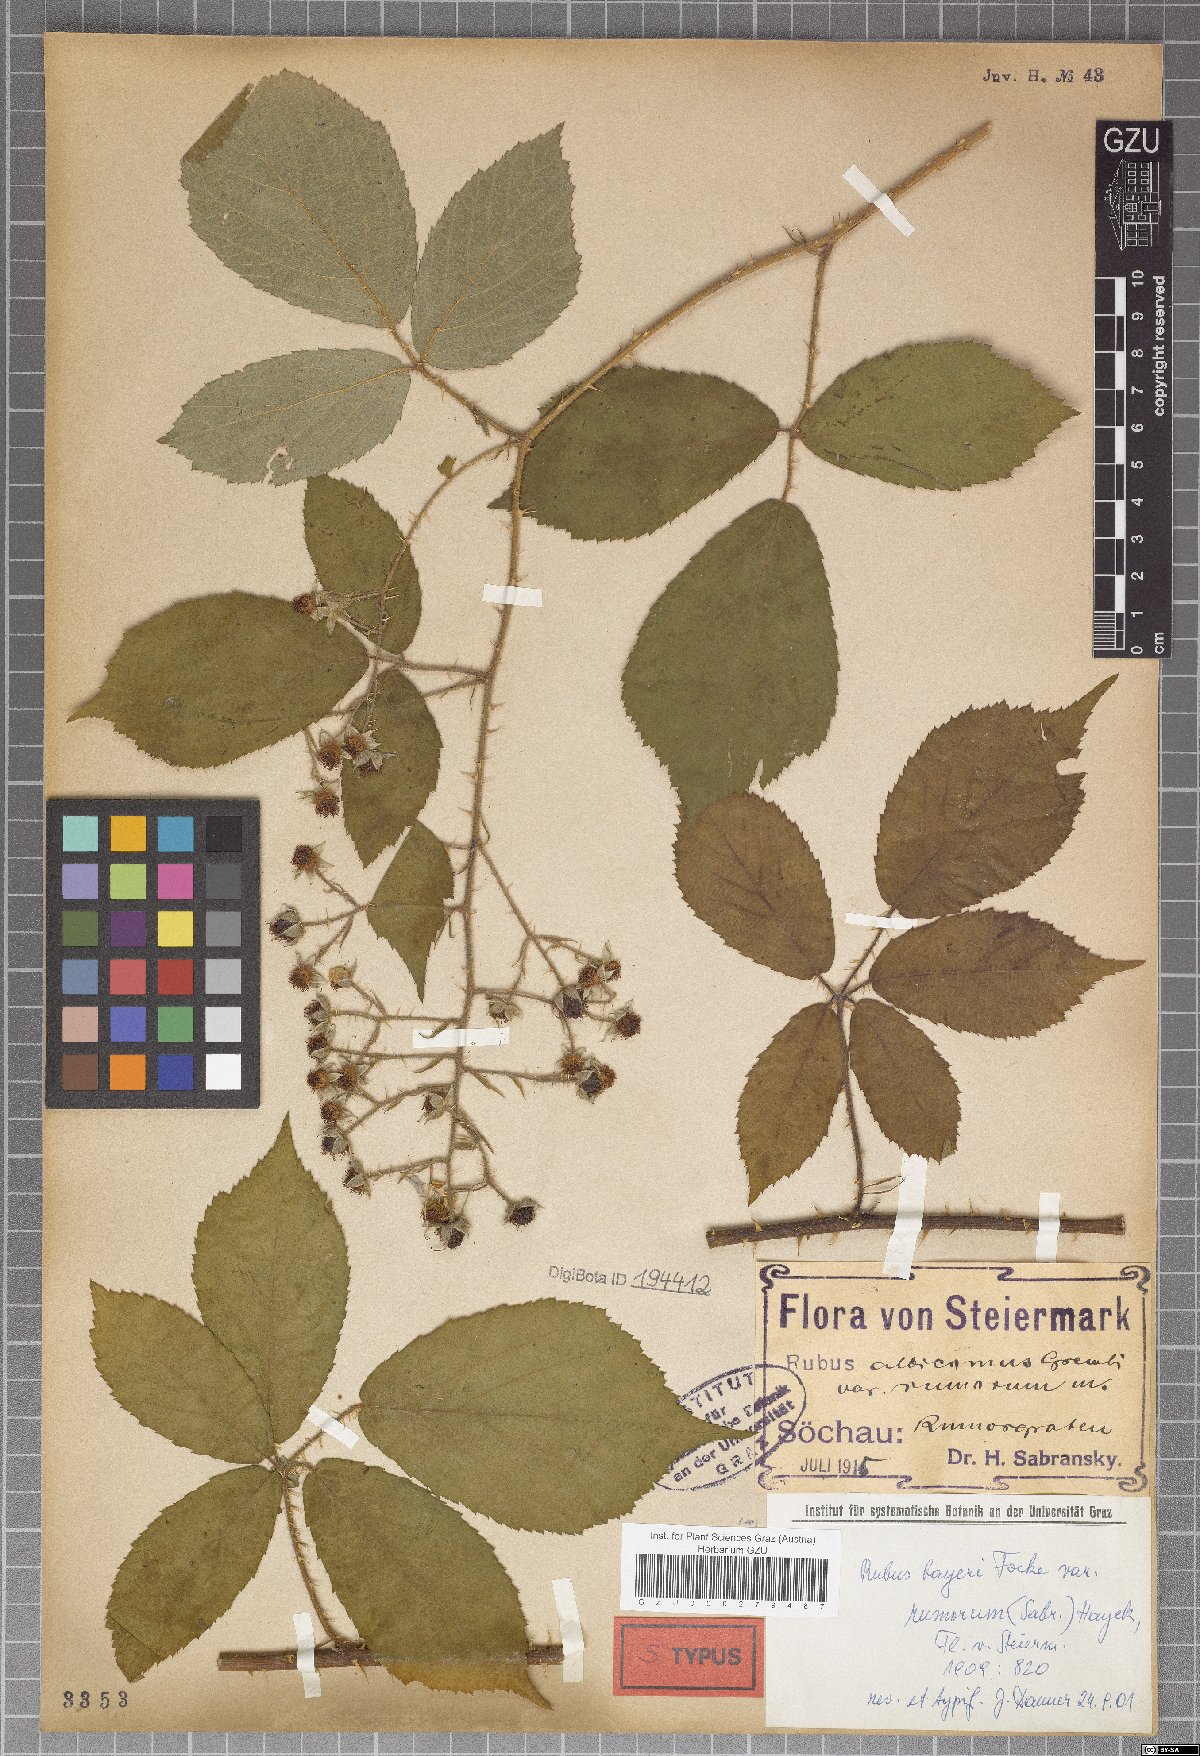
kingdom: Plantae
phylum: Tracheophyta
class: Magnoliopsida
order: Rosales
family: Rosaceae
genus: Rubus
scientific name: Rubus rivularis
